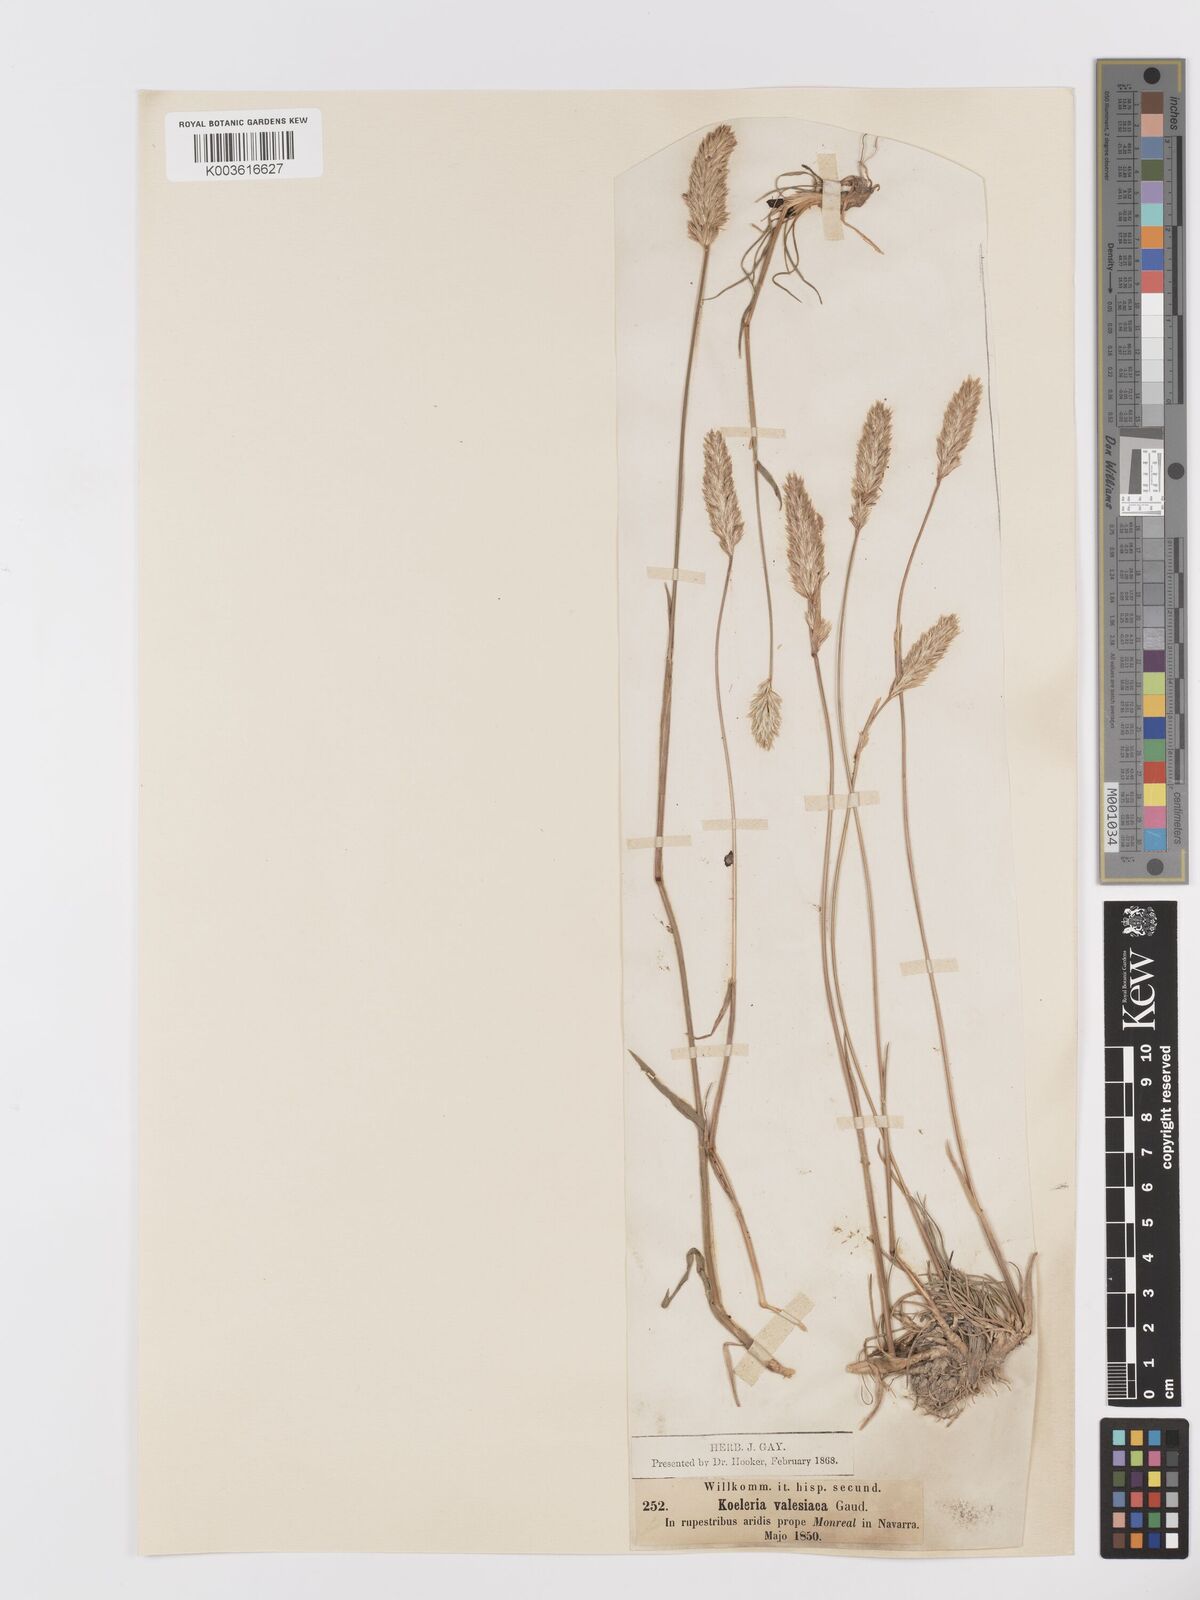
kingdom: Plantae
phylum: Tracheophyta
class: Liliopsida
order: Poales
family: Poaceae
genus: Koeleria
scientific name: Koeleria vallesiana
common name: Somerset hair-grass
